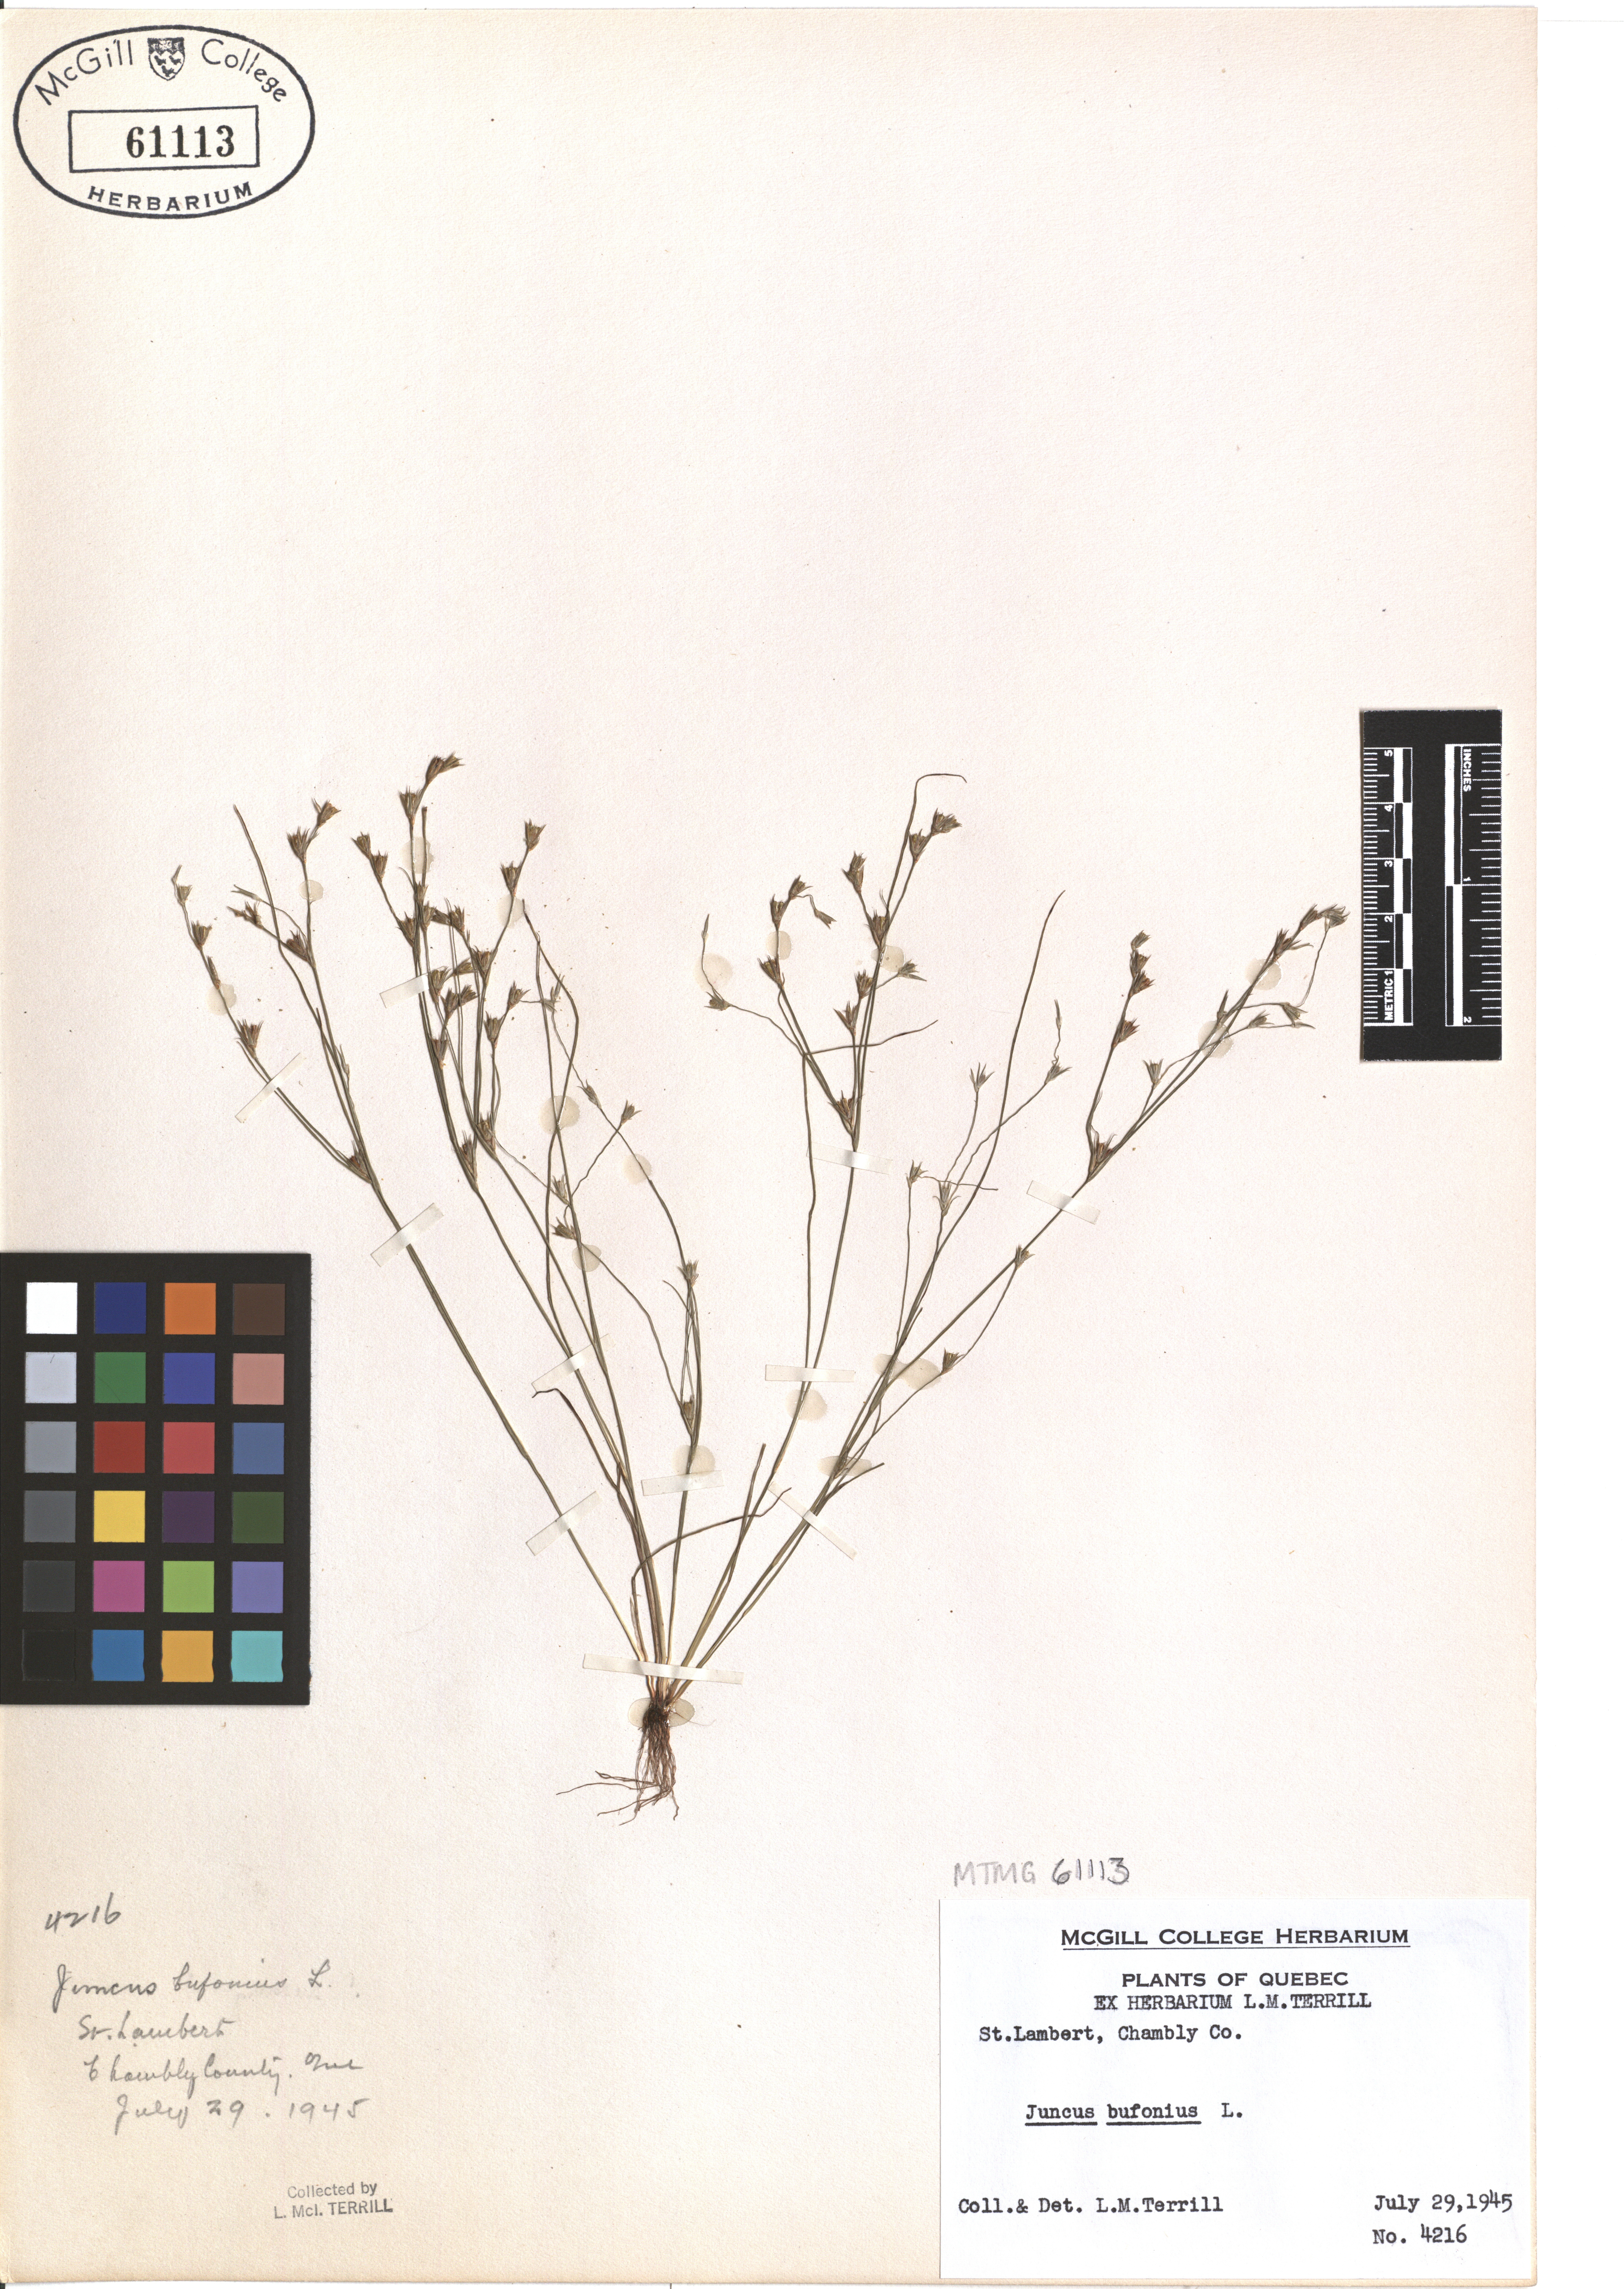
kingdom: Plantae
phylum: Tracheophyta
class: Liliopsida
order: Poales
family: Juncaceae
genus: Juncus
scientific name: Juncus bufonius
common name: Toad rush
